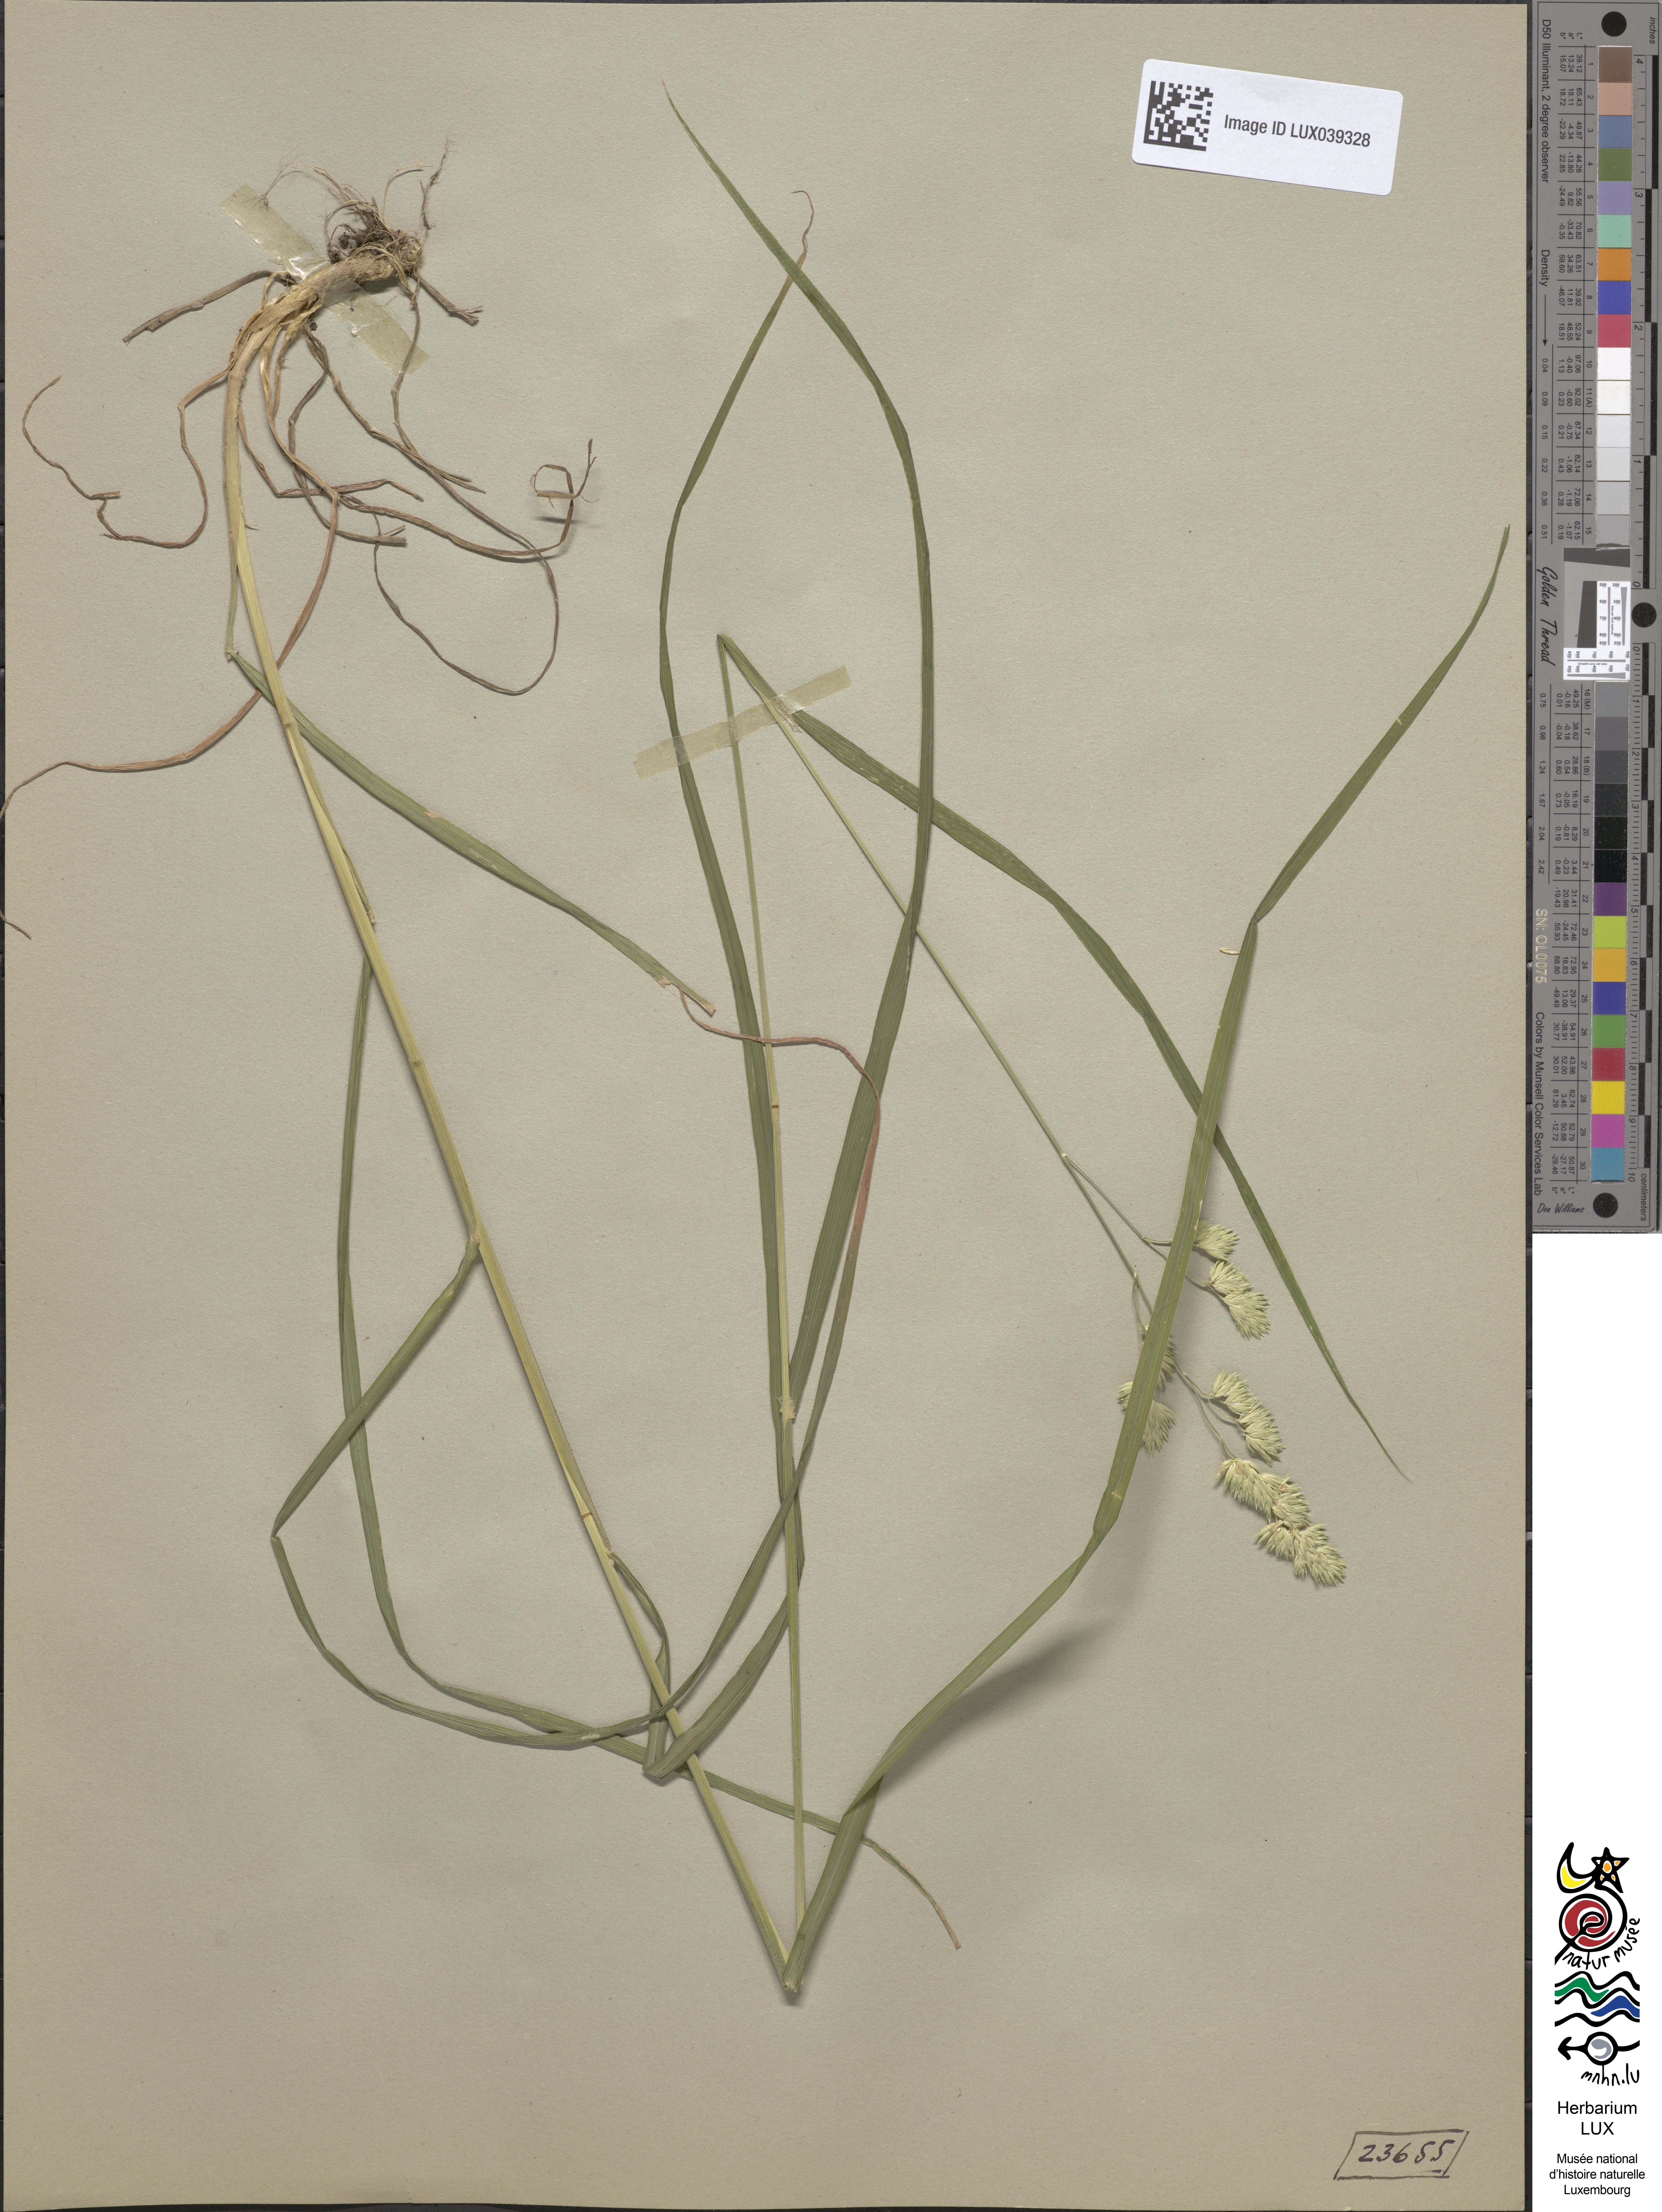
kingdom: Plantae
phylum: Tracheophyta
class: Liliopsida
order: Poales
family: Poaceae
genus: Dactylis
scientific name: Dactylis glomerata
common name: Orchardgrass
